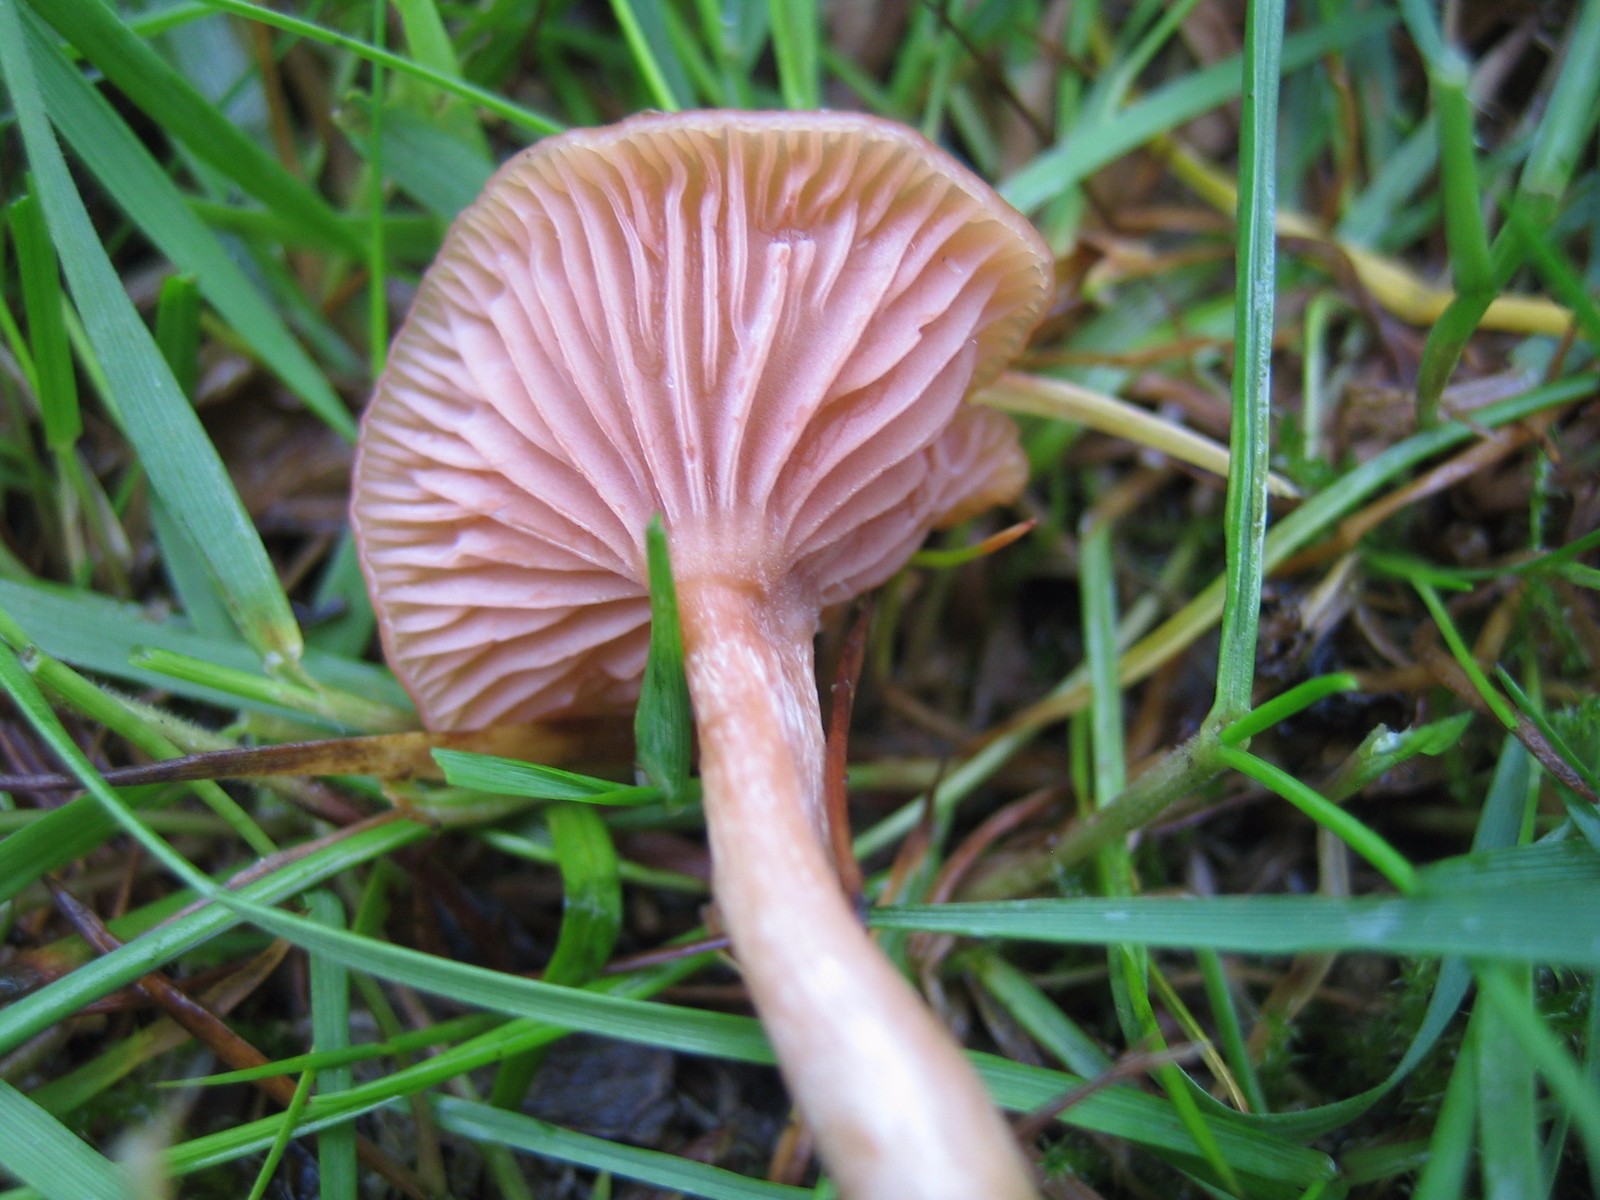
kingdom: Fungi
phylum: Basidiomycota
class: Agaricomycetes
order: Agaricales
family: Hydnangiaceae
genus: Laccaria
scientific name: Laccaria laccata
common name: rød ametysthat
